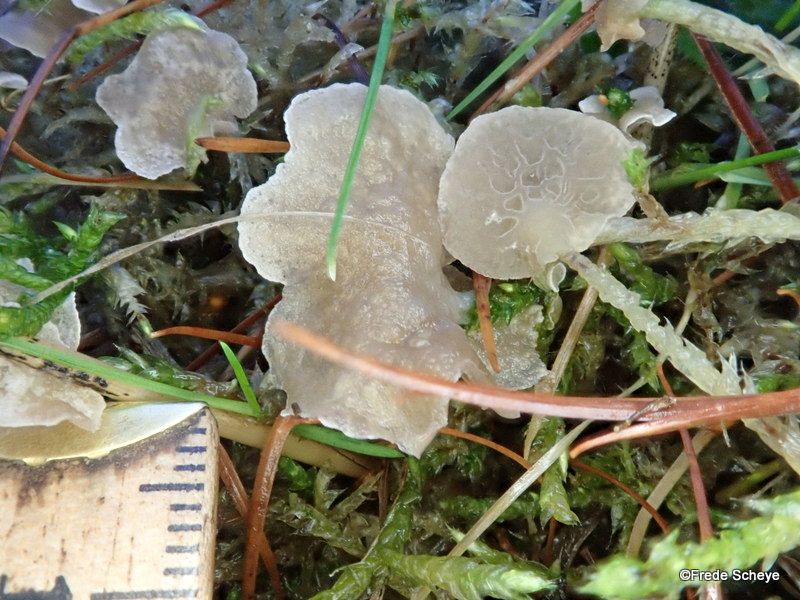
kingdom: Fungi
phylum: Basidiomycota
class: Agaricomycetes
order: Agaricales
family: Hygrophoraceae
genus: Arrhenia
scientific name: Arrhenia retiruga
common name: lille fontænehat
